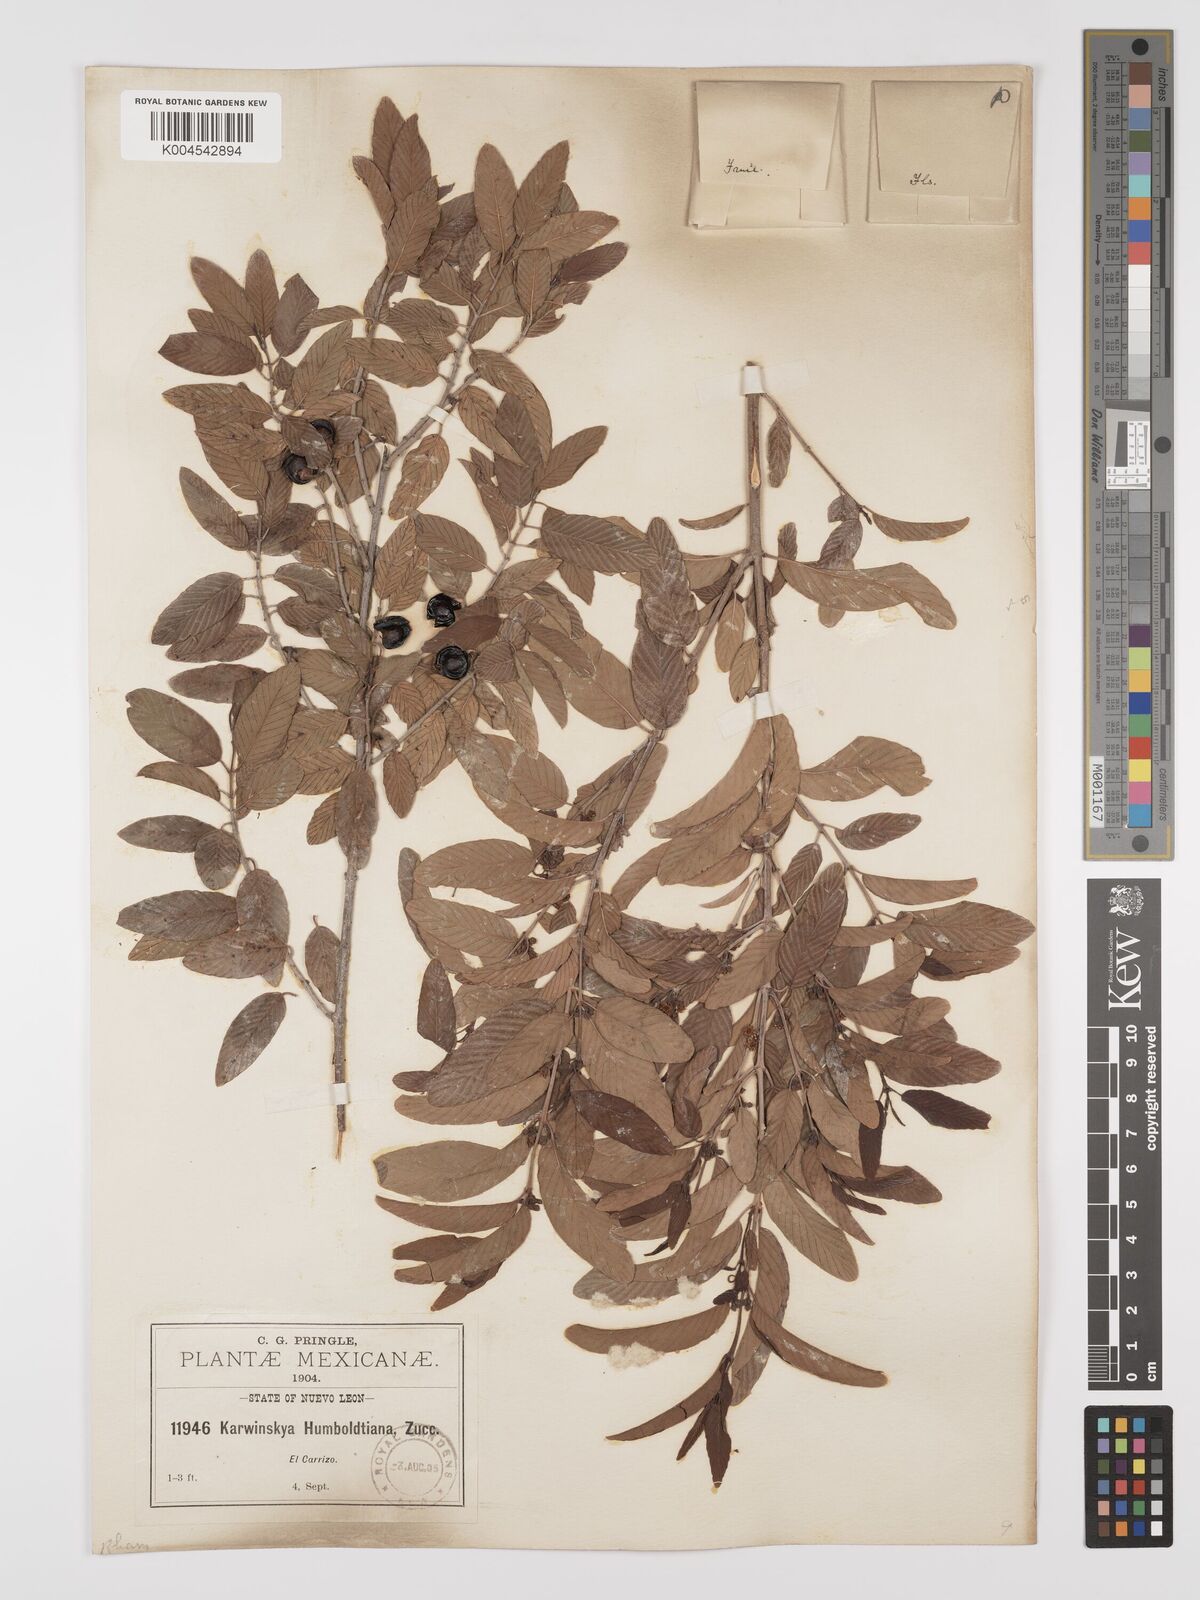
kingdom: Plantae
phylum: Tracheophyta
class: Magnoliopsida
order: Rosales
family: Rhamnaceae
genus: Karwinskia
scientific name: Karwinskia humboldtiana
